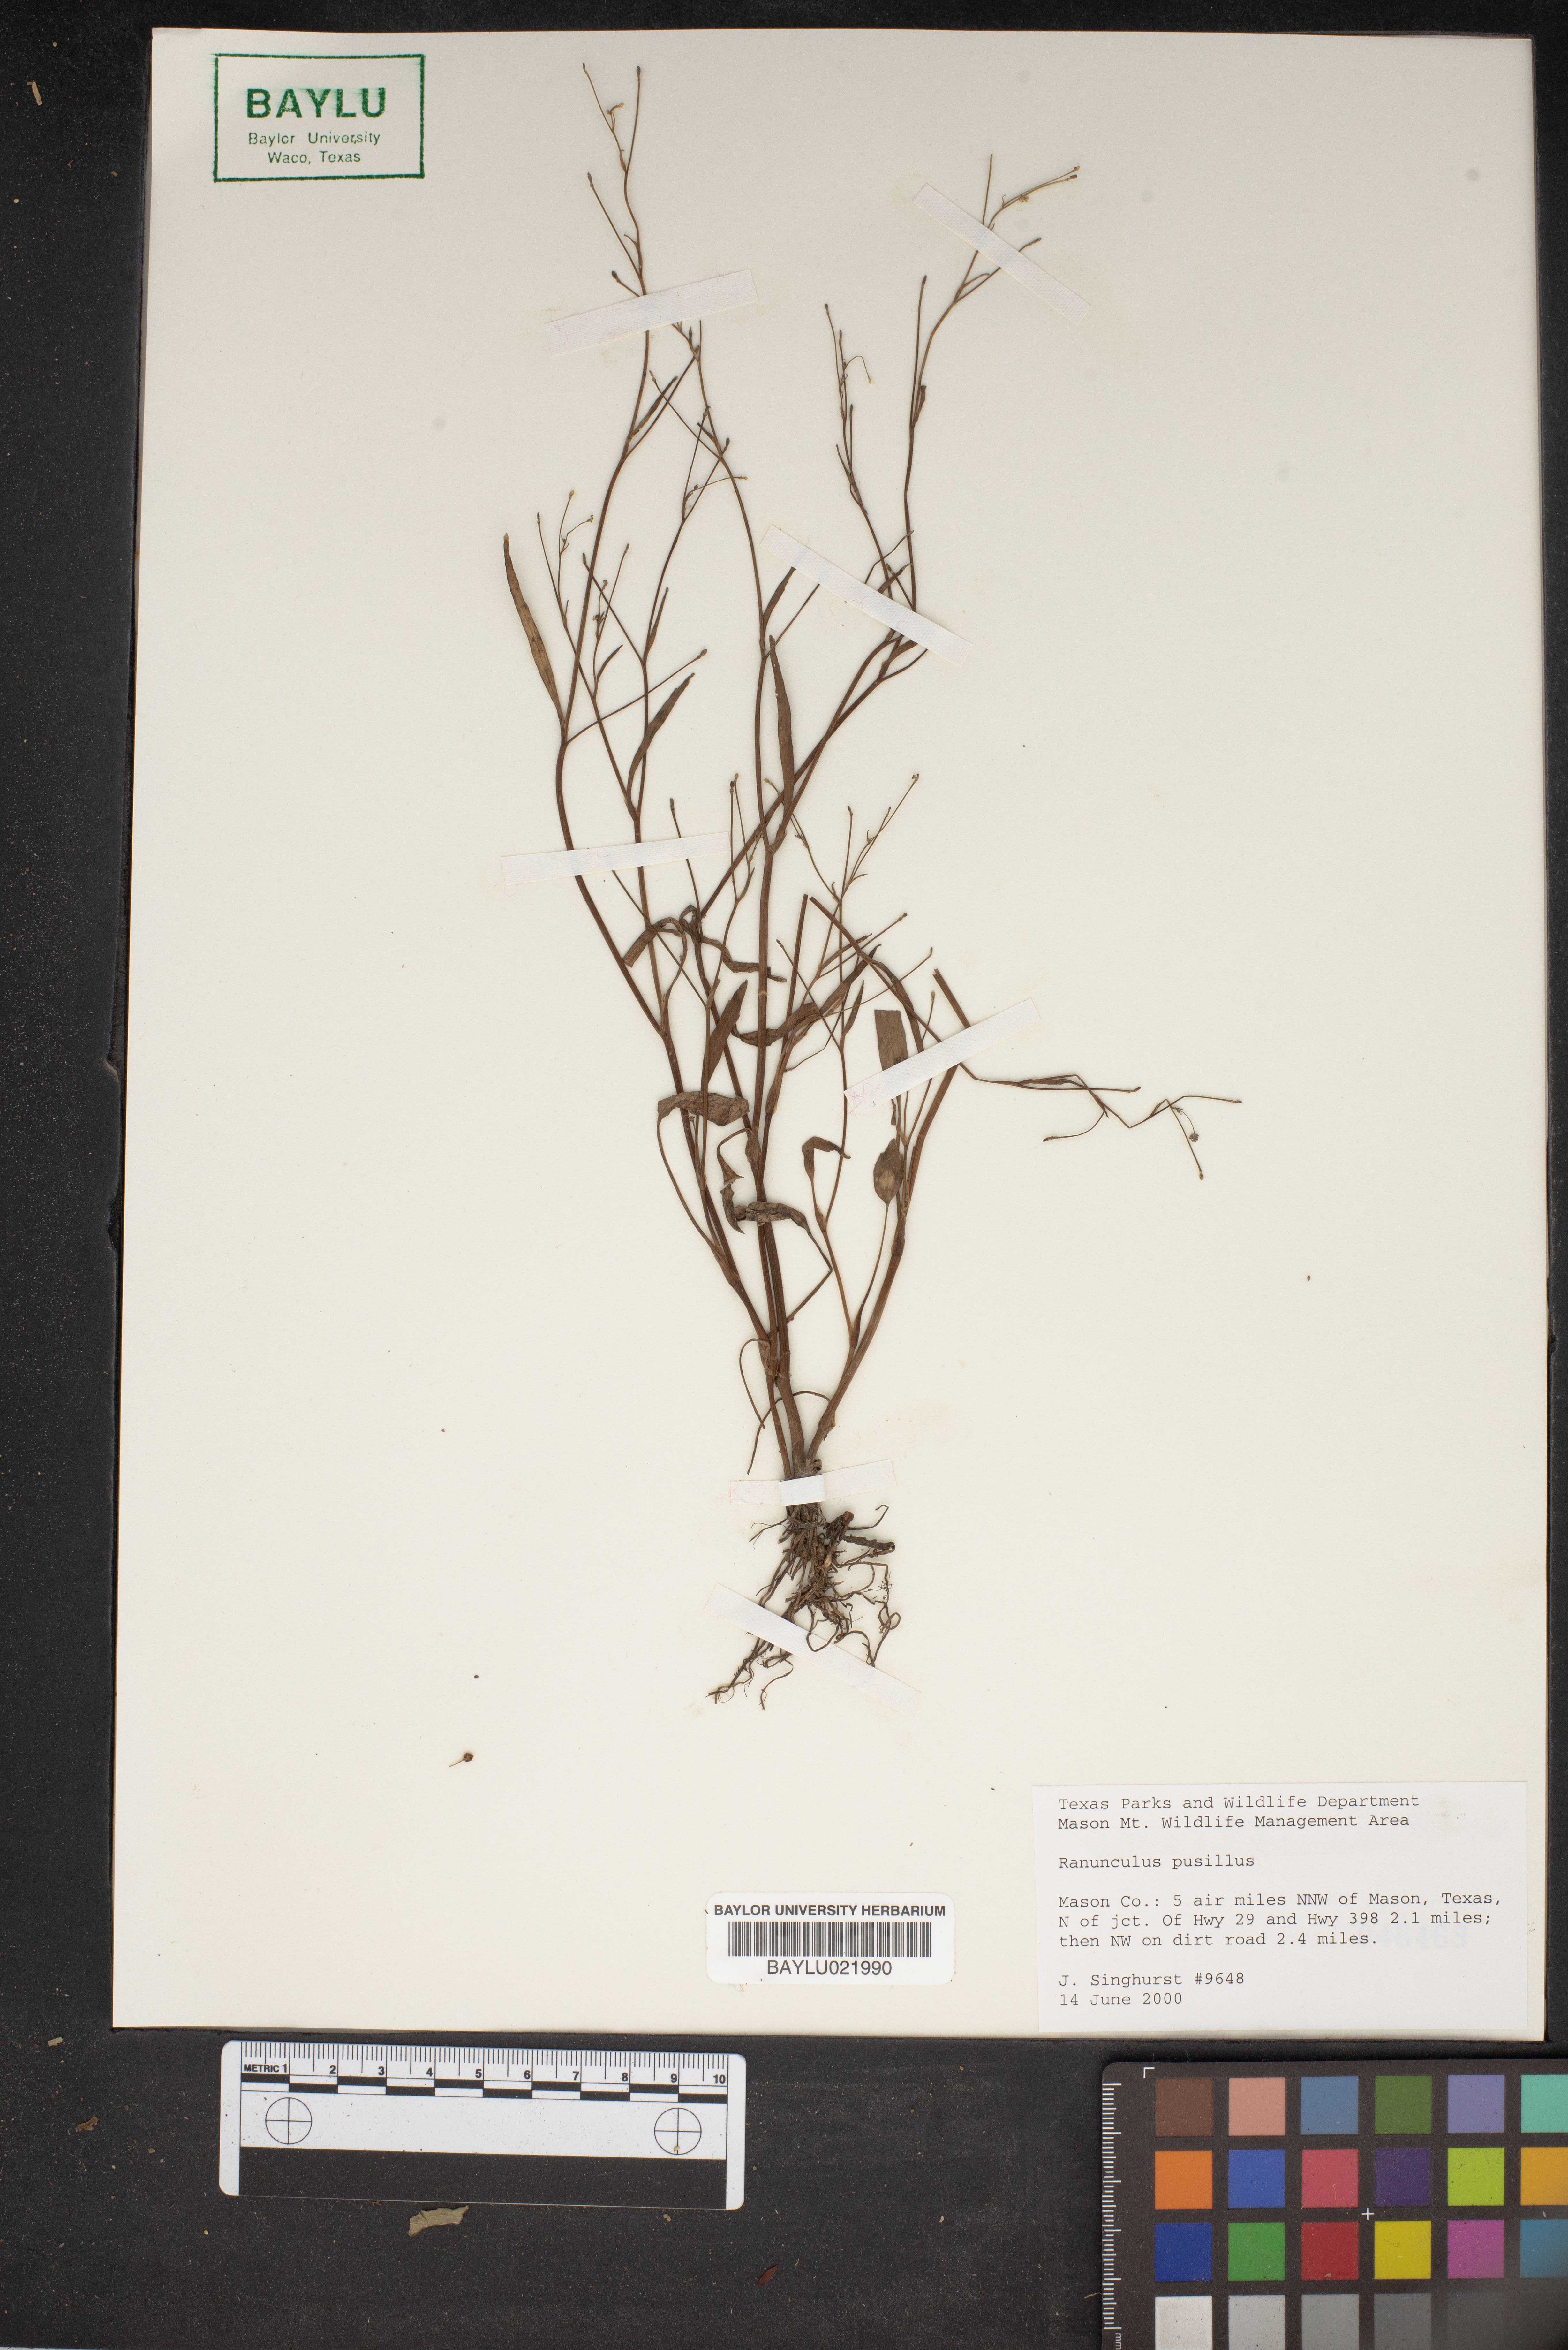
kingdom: Plantae
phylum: Tracheophyta
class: Magnoliopsida
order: Ranunculales
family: Ranunculaceae
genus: Ranunculus
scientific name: Ranunculus pusillus
